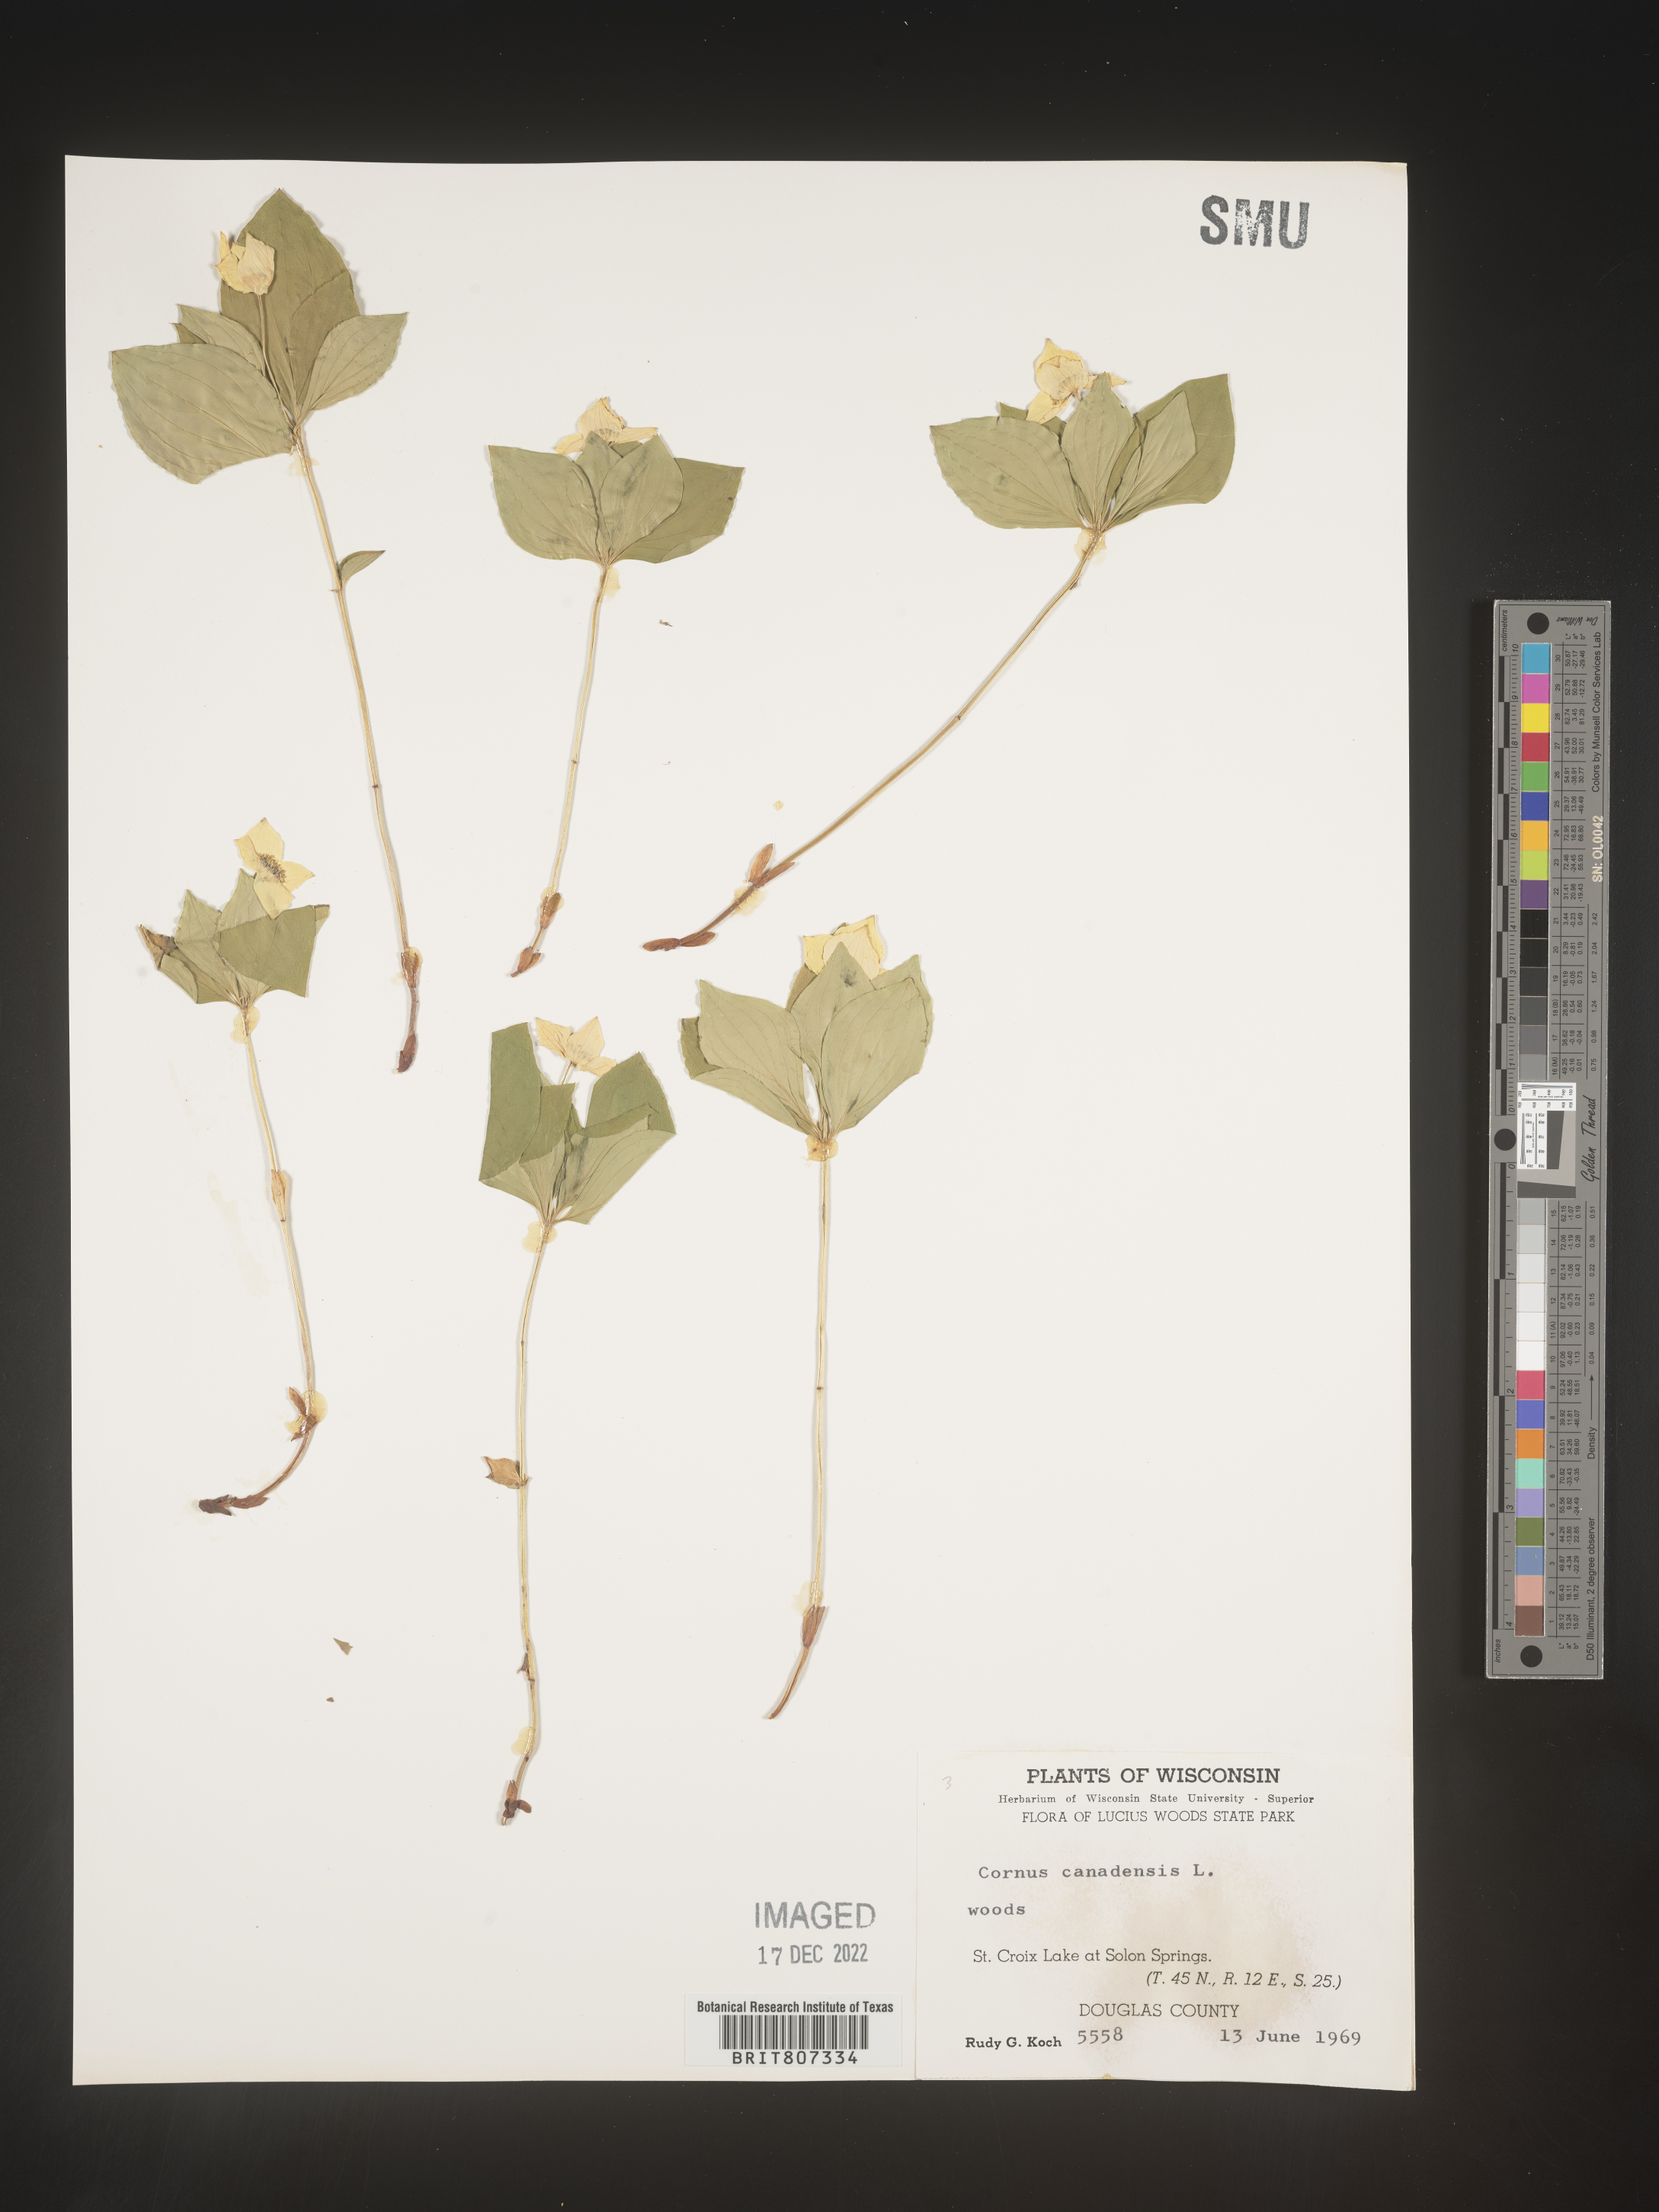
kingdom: Plantae
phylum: Tracheophyta
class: Magnoliopsida
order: Cornales
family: Cornaceae
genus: Cornus
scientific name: Cornus canadensis
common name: Creeping dogwood
